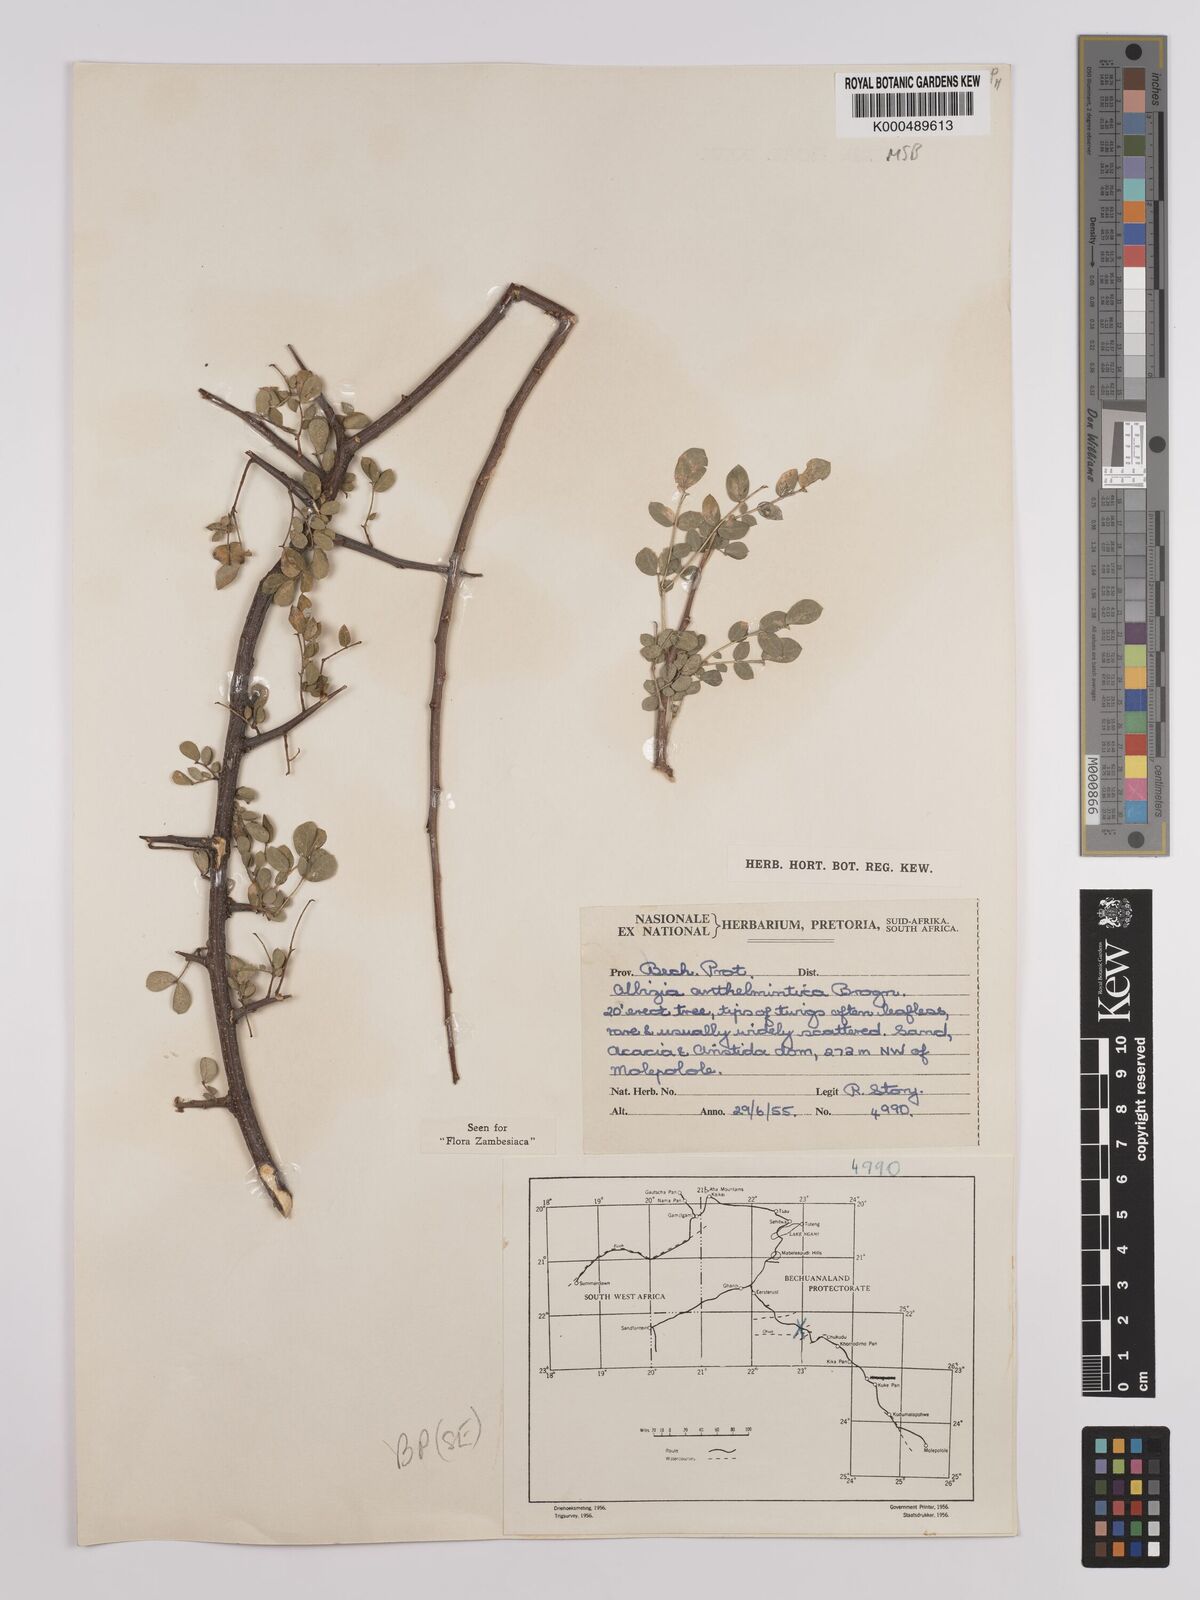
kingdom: Plantae
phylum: Tracheophyta
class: Magnoliopsida
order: Fabales
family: Fabaceae
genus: Albizia
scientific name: Albizia anthelmintica
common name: Worm-bark false-thorn
